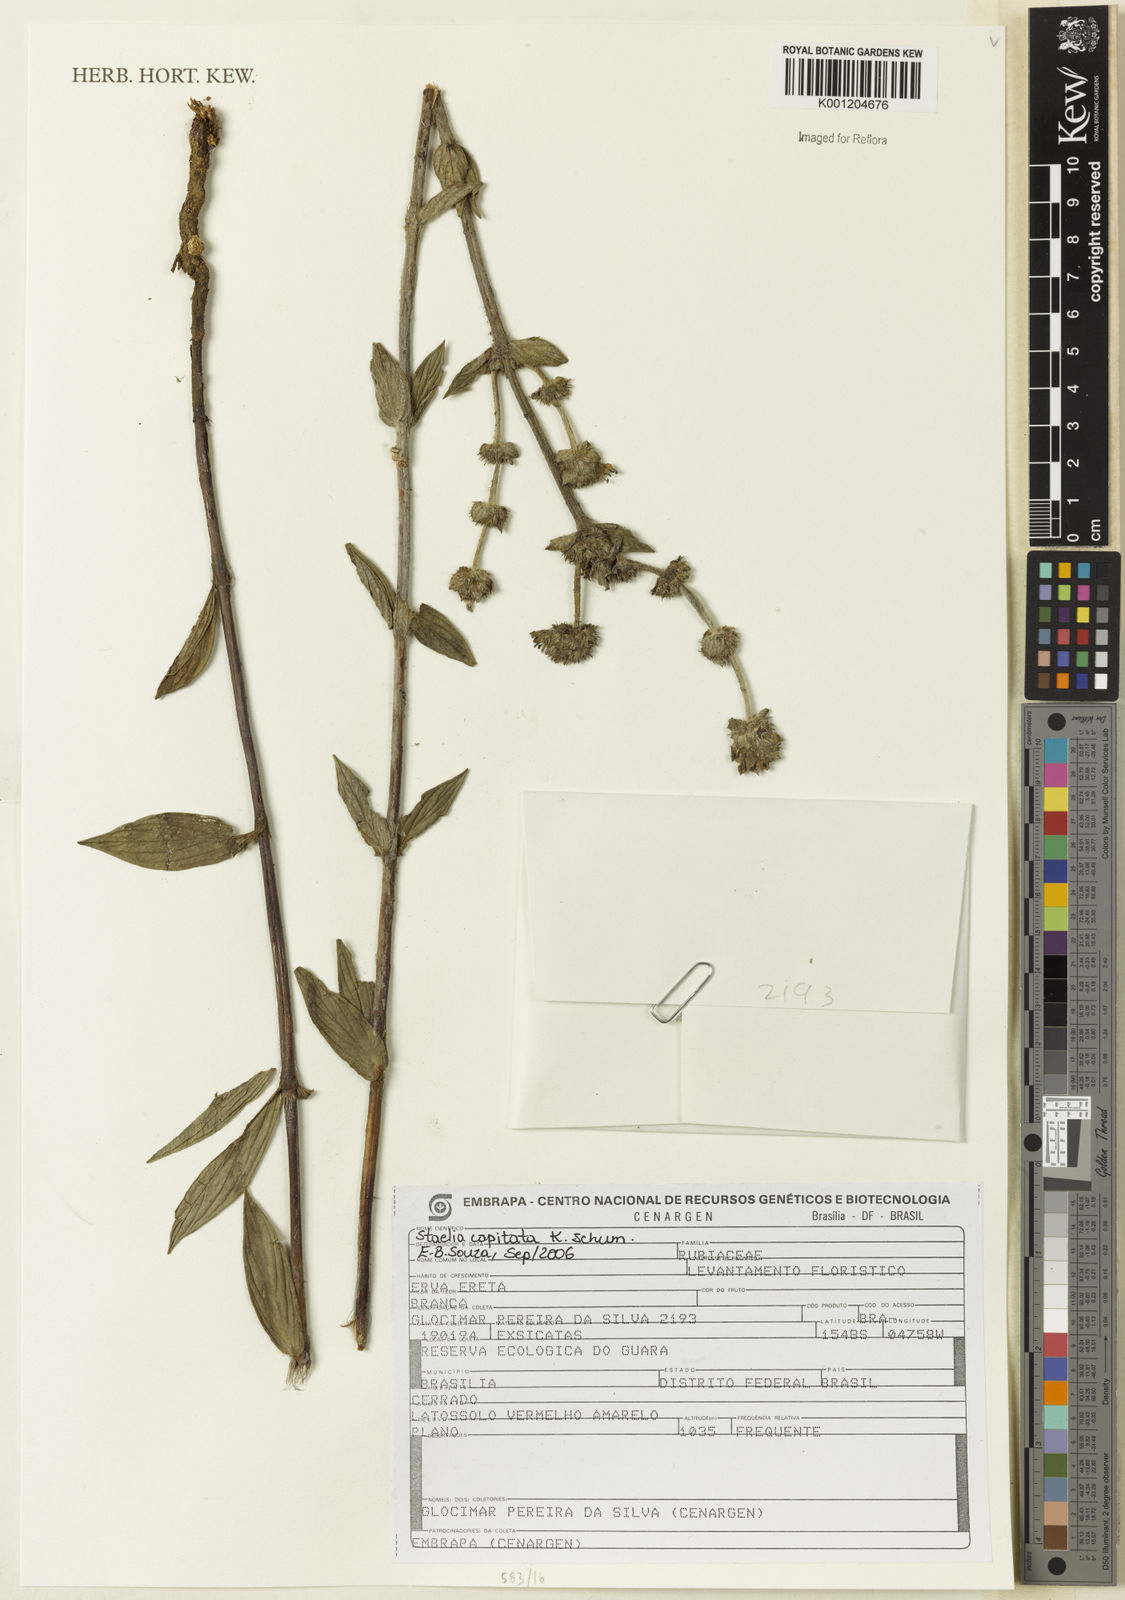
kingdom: Plantae
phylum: Tracheophyta
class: Magnoliopsida
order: Gentianales
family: Rubiaceae
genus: Planaltina
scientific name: Planaltina capitata
